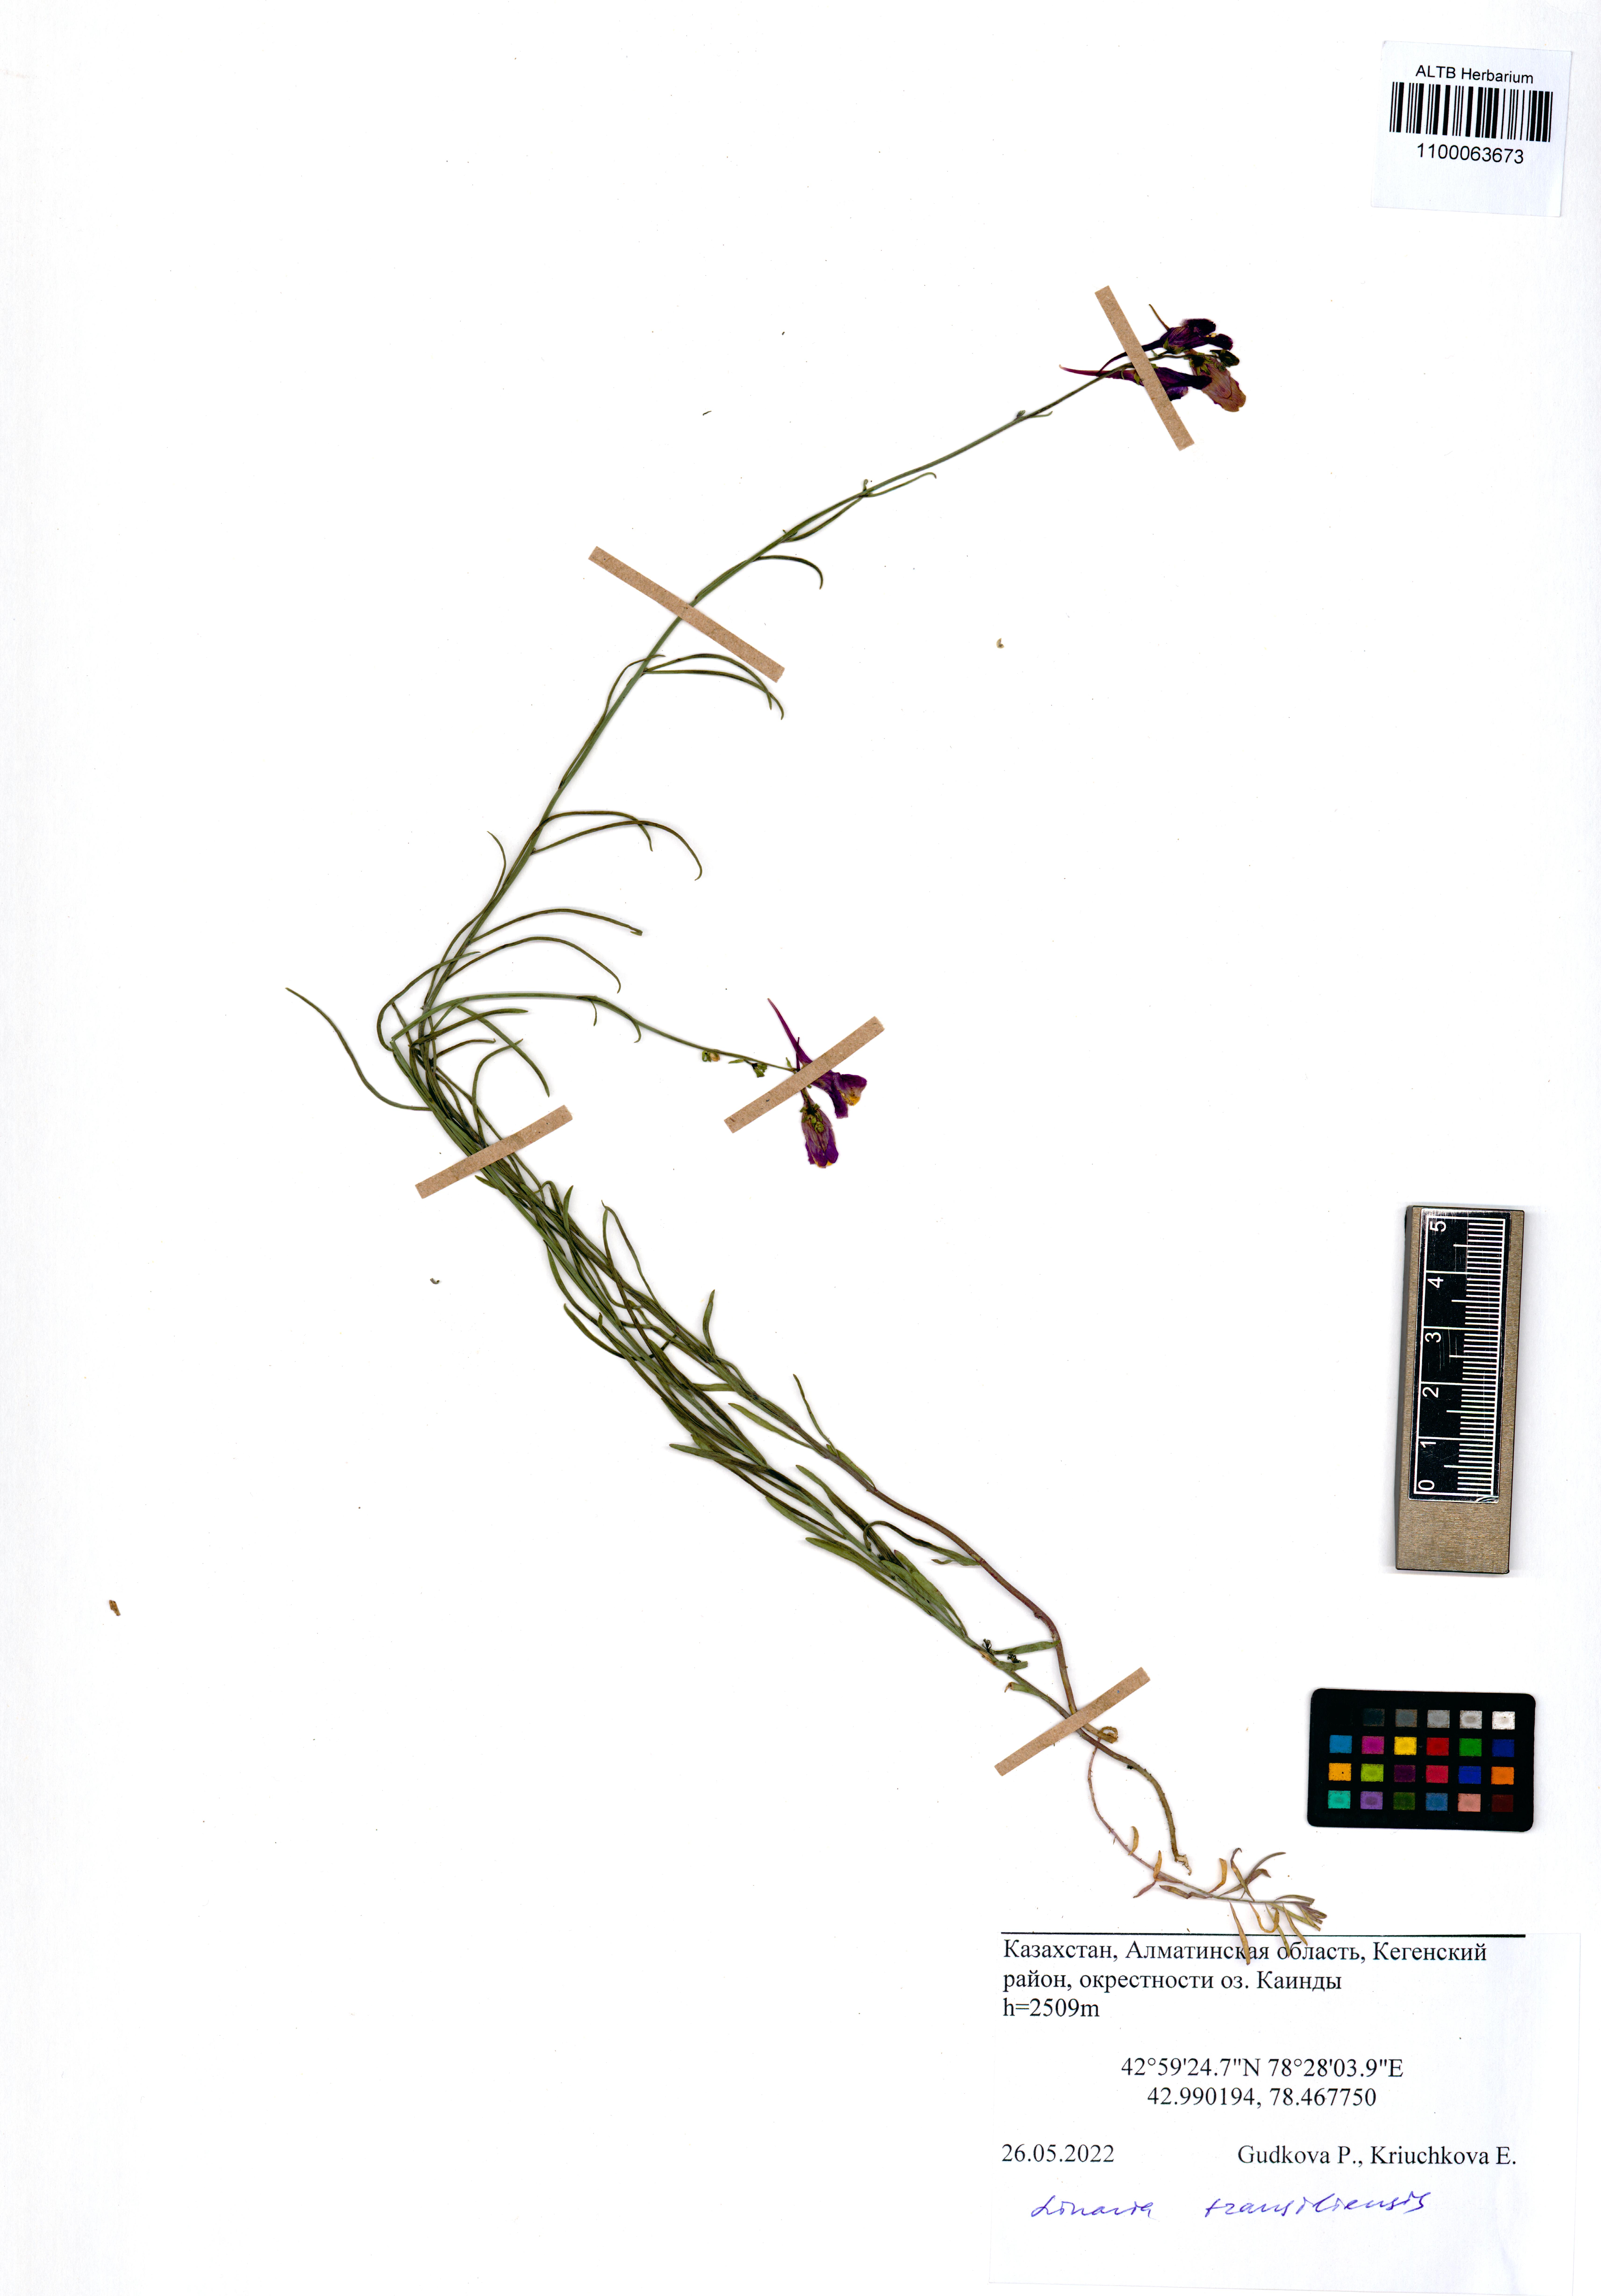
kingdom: Plantae
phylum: Tracheophyta
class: Magnoliopsida
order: Lamiales
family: Plantaginaceae
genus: Linaria
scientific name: Linaria bungei
